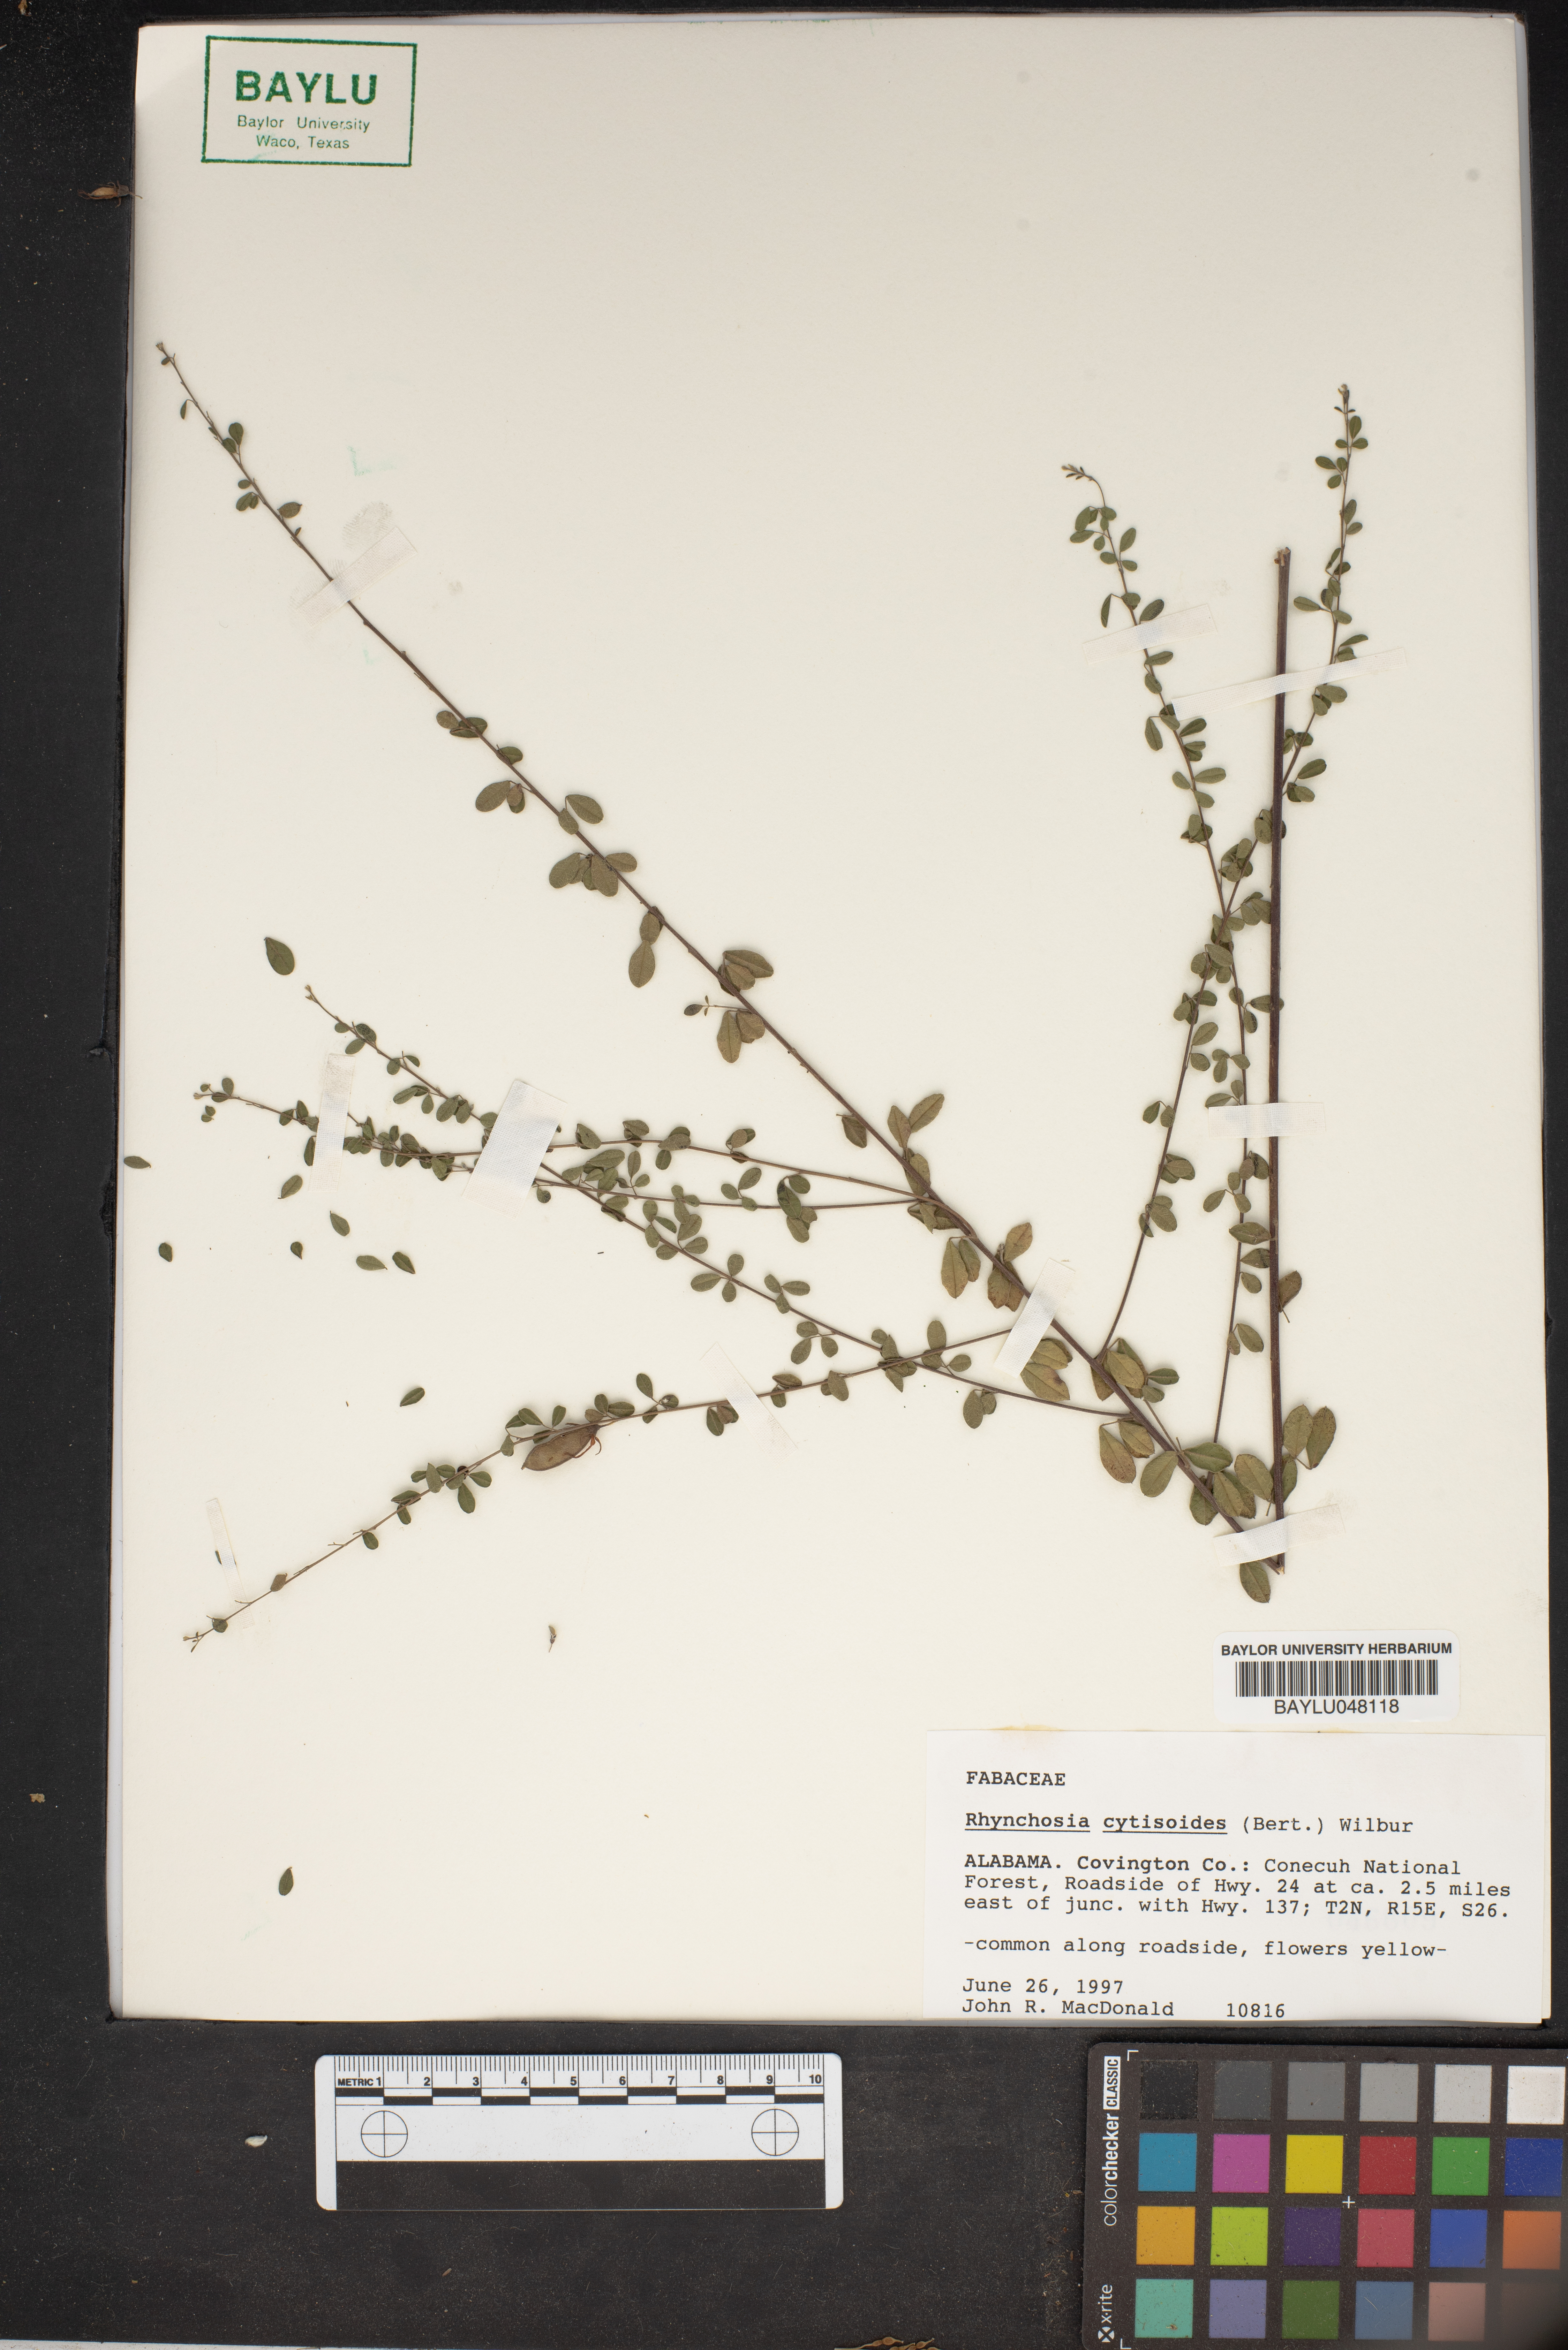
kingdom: Plantae
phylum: Tracheophyta
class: Magnoliopsida
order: Fabales
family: Fabaceae
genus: Rhynchosia
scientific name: Rhynchosia cytisoides
